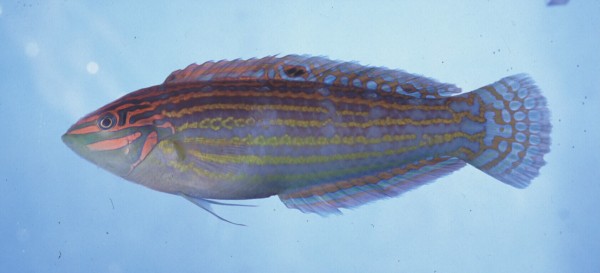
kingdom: Animalia
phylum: Chordata
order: Perciformes
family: Labridae
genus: Halichoeres
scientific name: Halichoeres cosmetus
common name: Adorned wrasse
